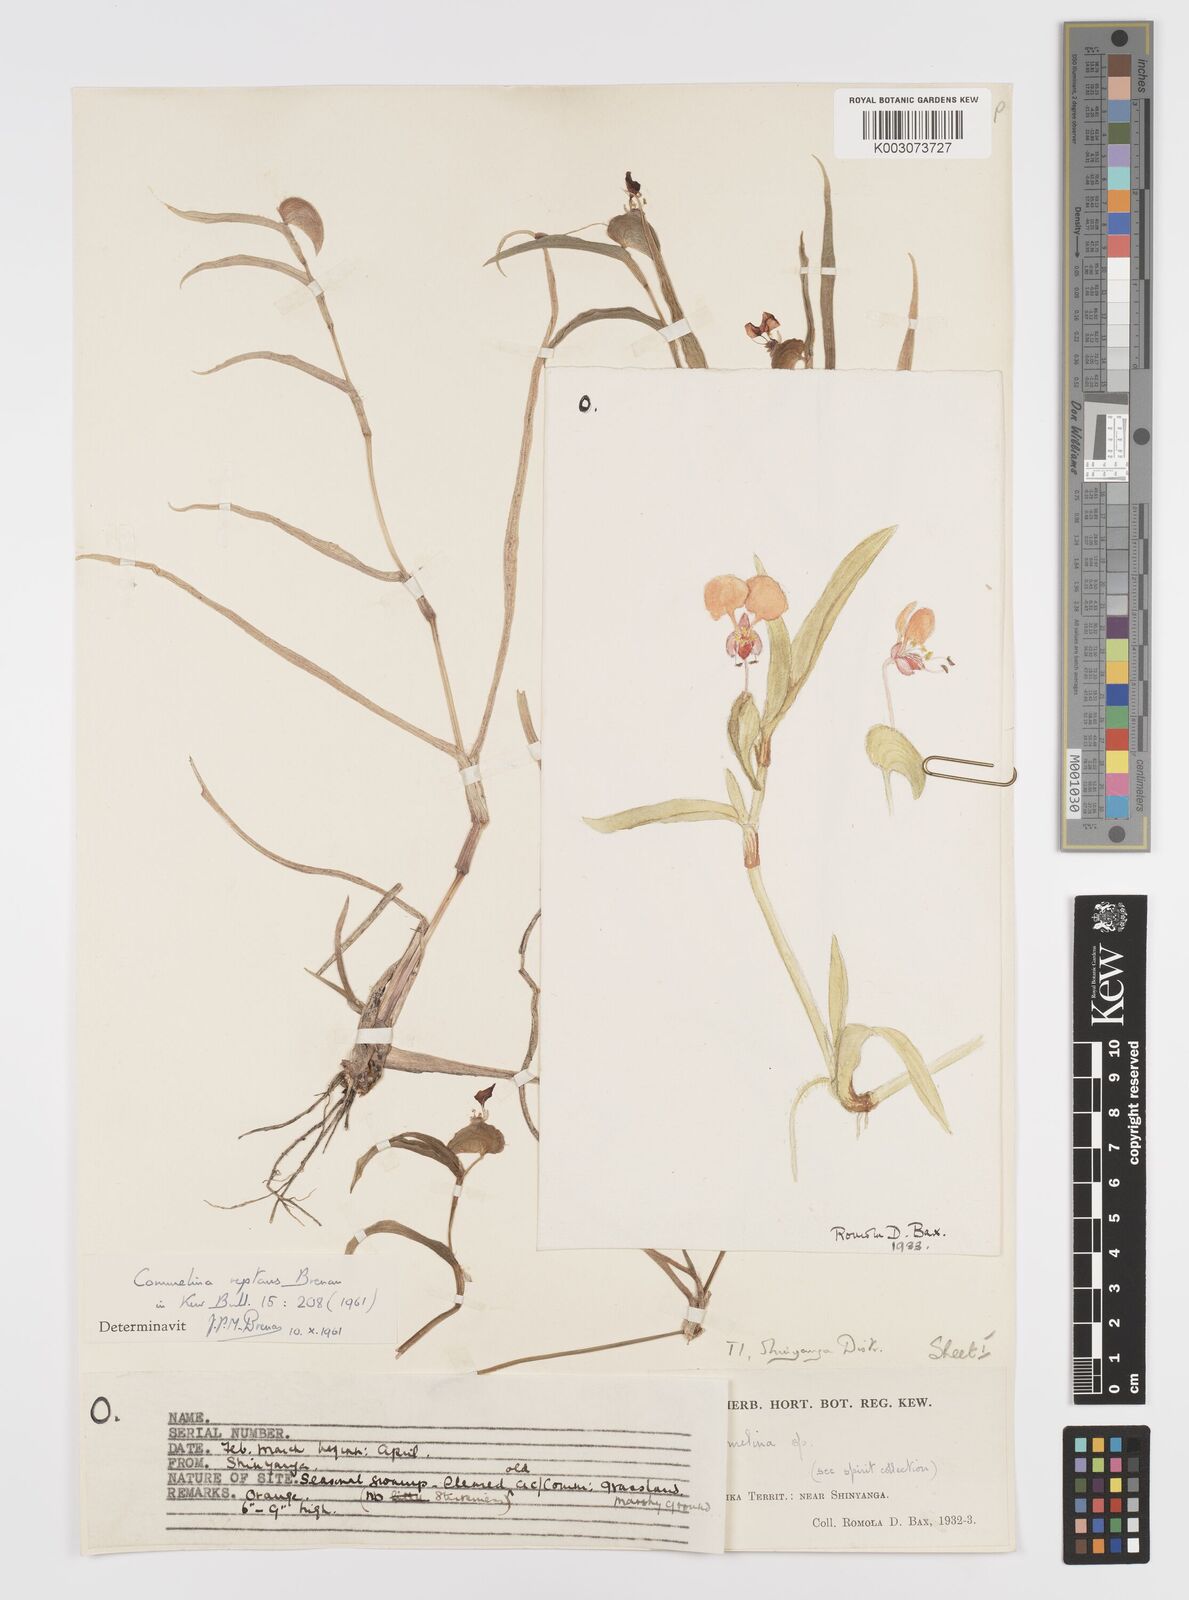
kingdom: Plantae
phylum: Tracheophyta
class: Liliopsida
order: Commelinales
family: Commelinaceae
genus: Commelina
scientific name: Commelina reptans
